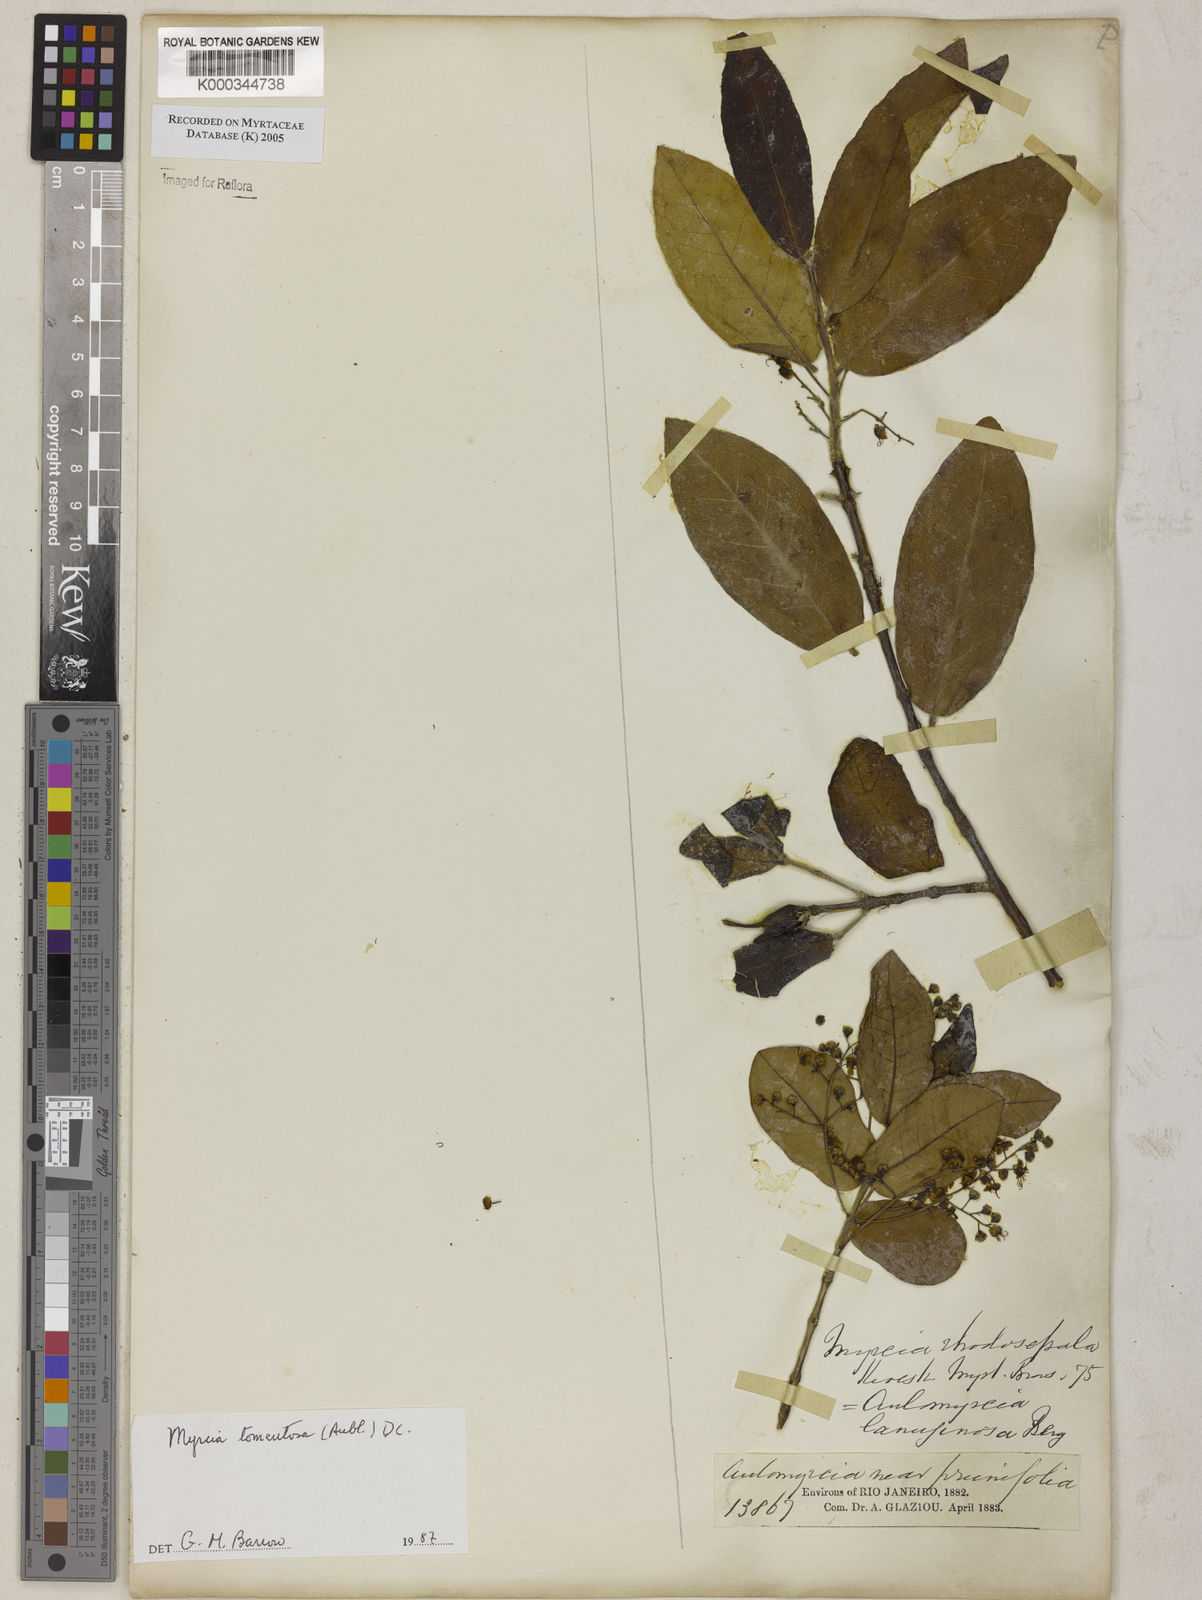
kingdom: Plantae
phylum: Tracheophyta
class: Magnoliopsida
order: Myrtales
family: Myrtaceae
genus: Myrcia
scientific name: Myrcia tomentosa
